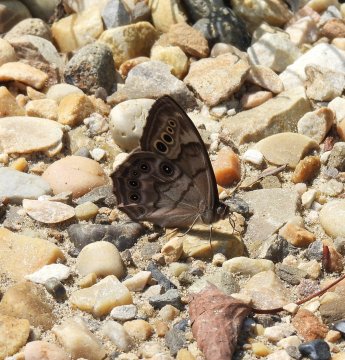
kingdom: Animalia
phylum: Arthropoda
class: Insecta
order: Lepidoptera
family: Nymphalidae
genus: Lethe
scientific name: Lethe anthedon
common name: Northern Pearly-Eye
